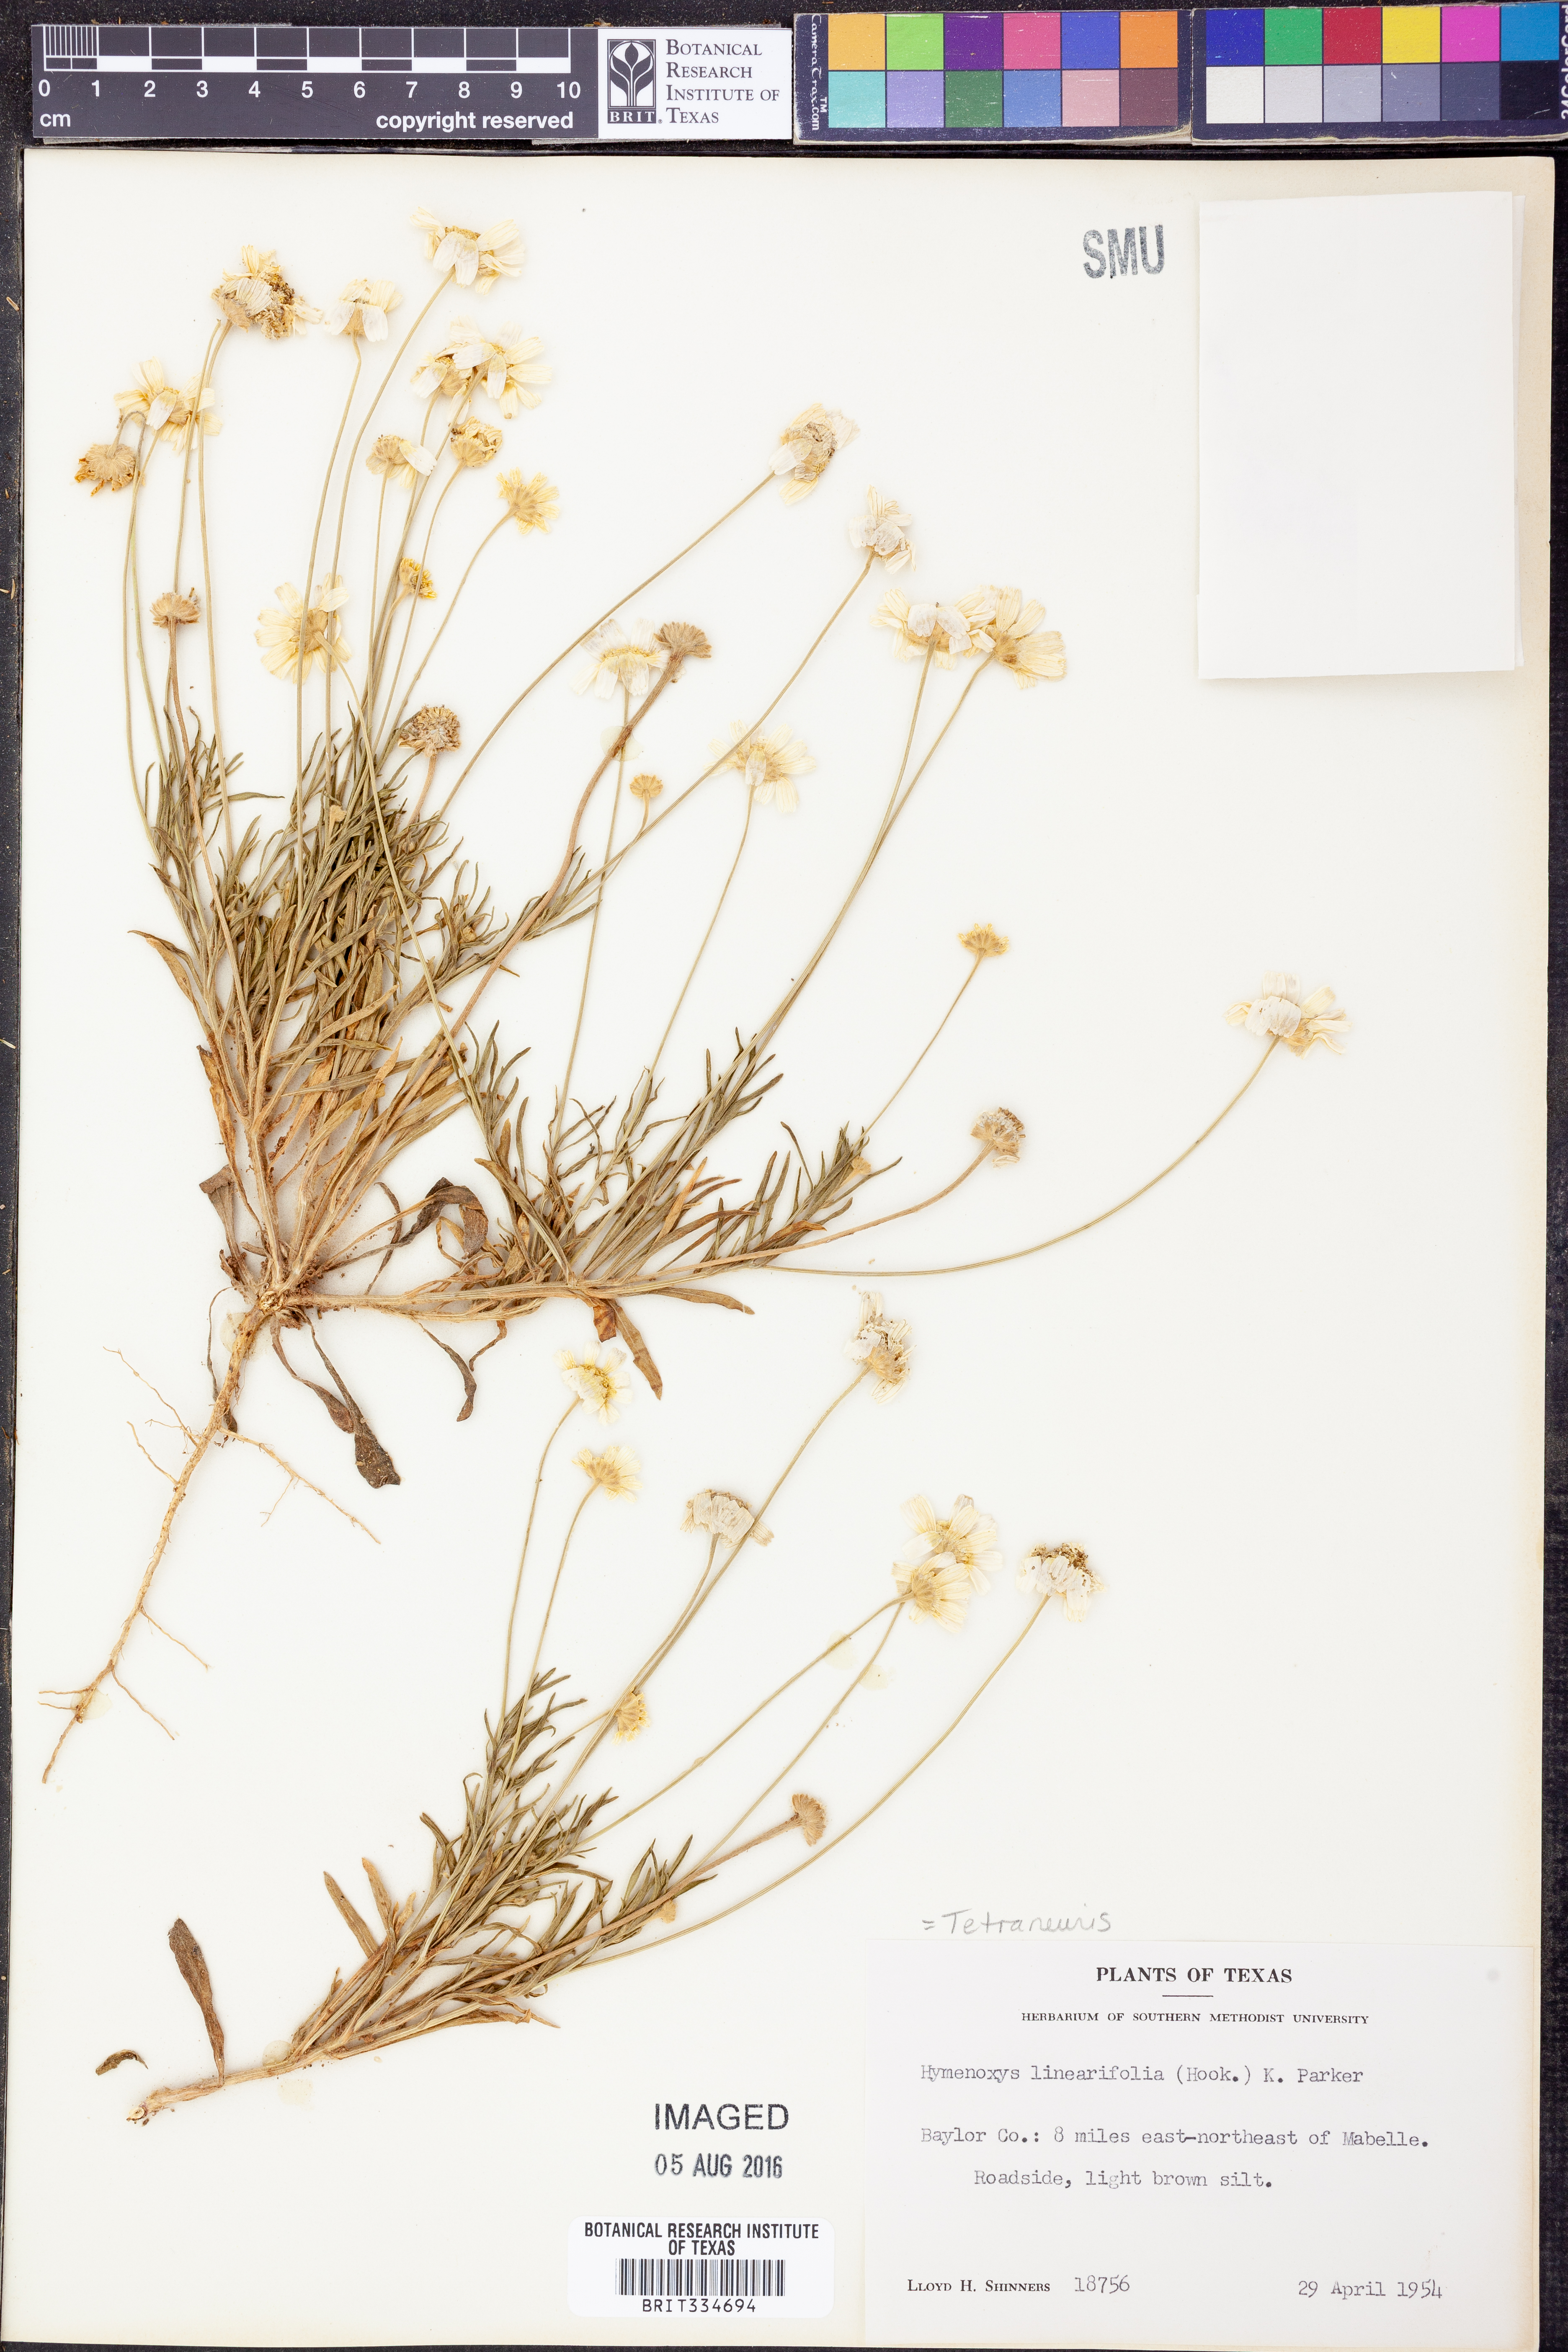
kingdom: Plantae
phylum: Tracheophyta
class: Magnoliopsida
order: Asterales
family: Asteraceae
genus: Tetraneuris
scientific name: Tetraneuris linearifolia
